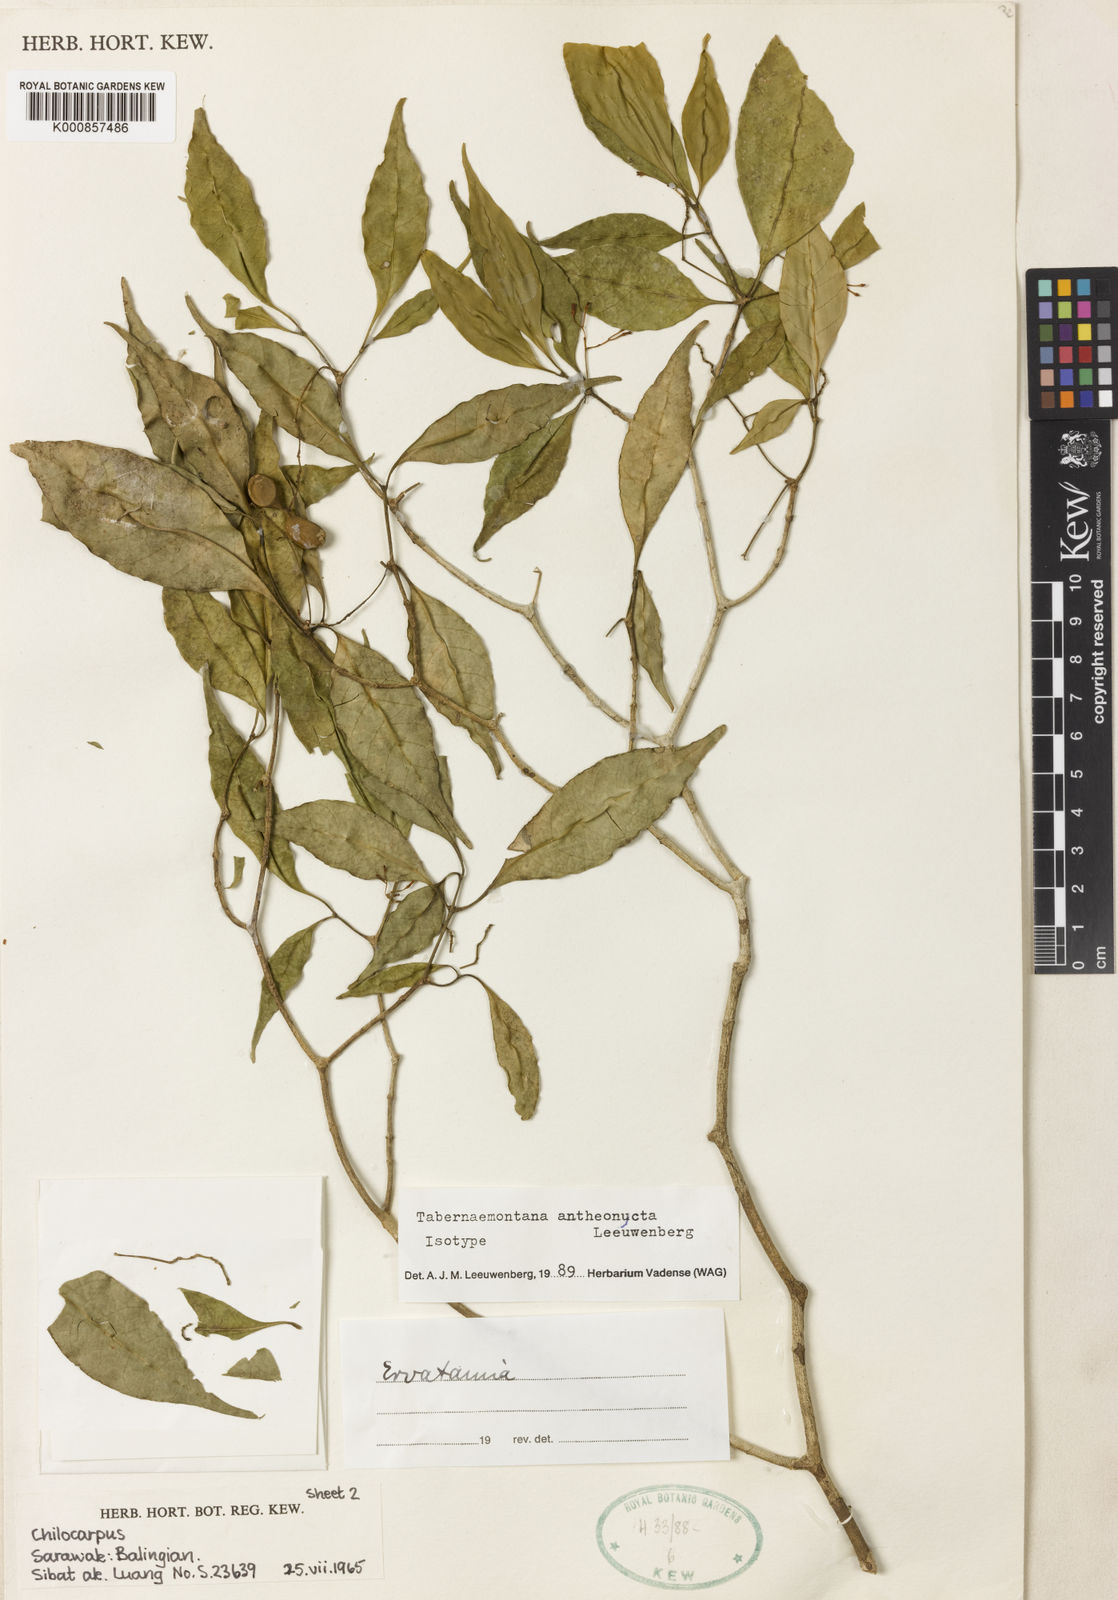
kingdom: Plantae
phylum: Tracheophyta
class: Magnoliopsida
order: Gentianales
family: Apocynaceae
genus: Tabernaemontana
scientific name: Tabernaemontana antheonycta
